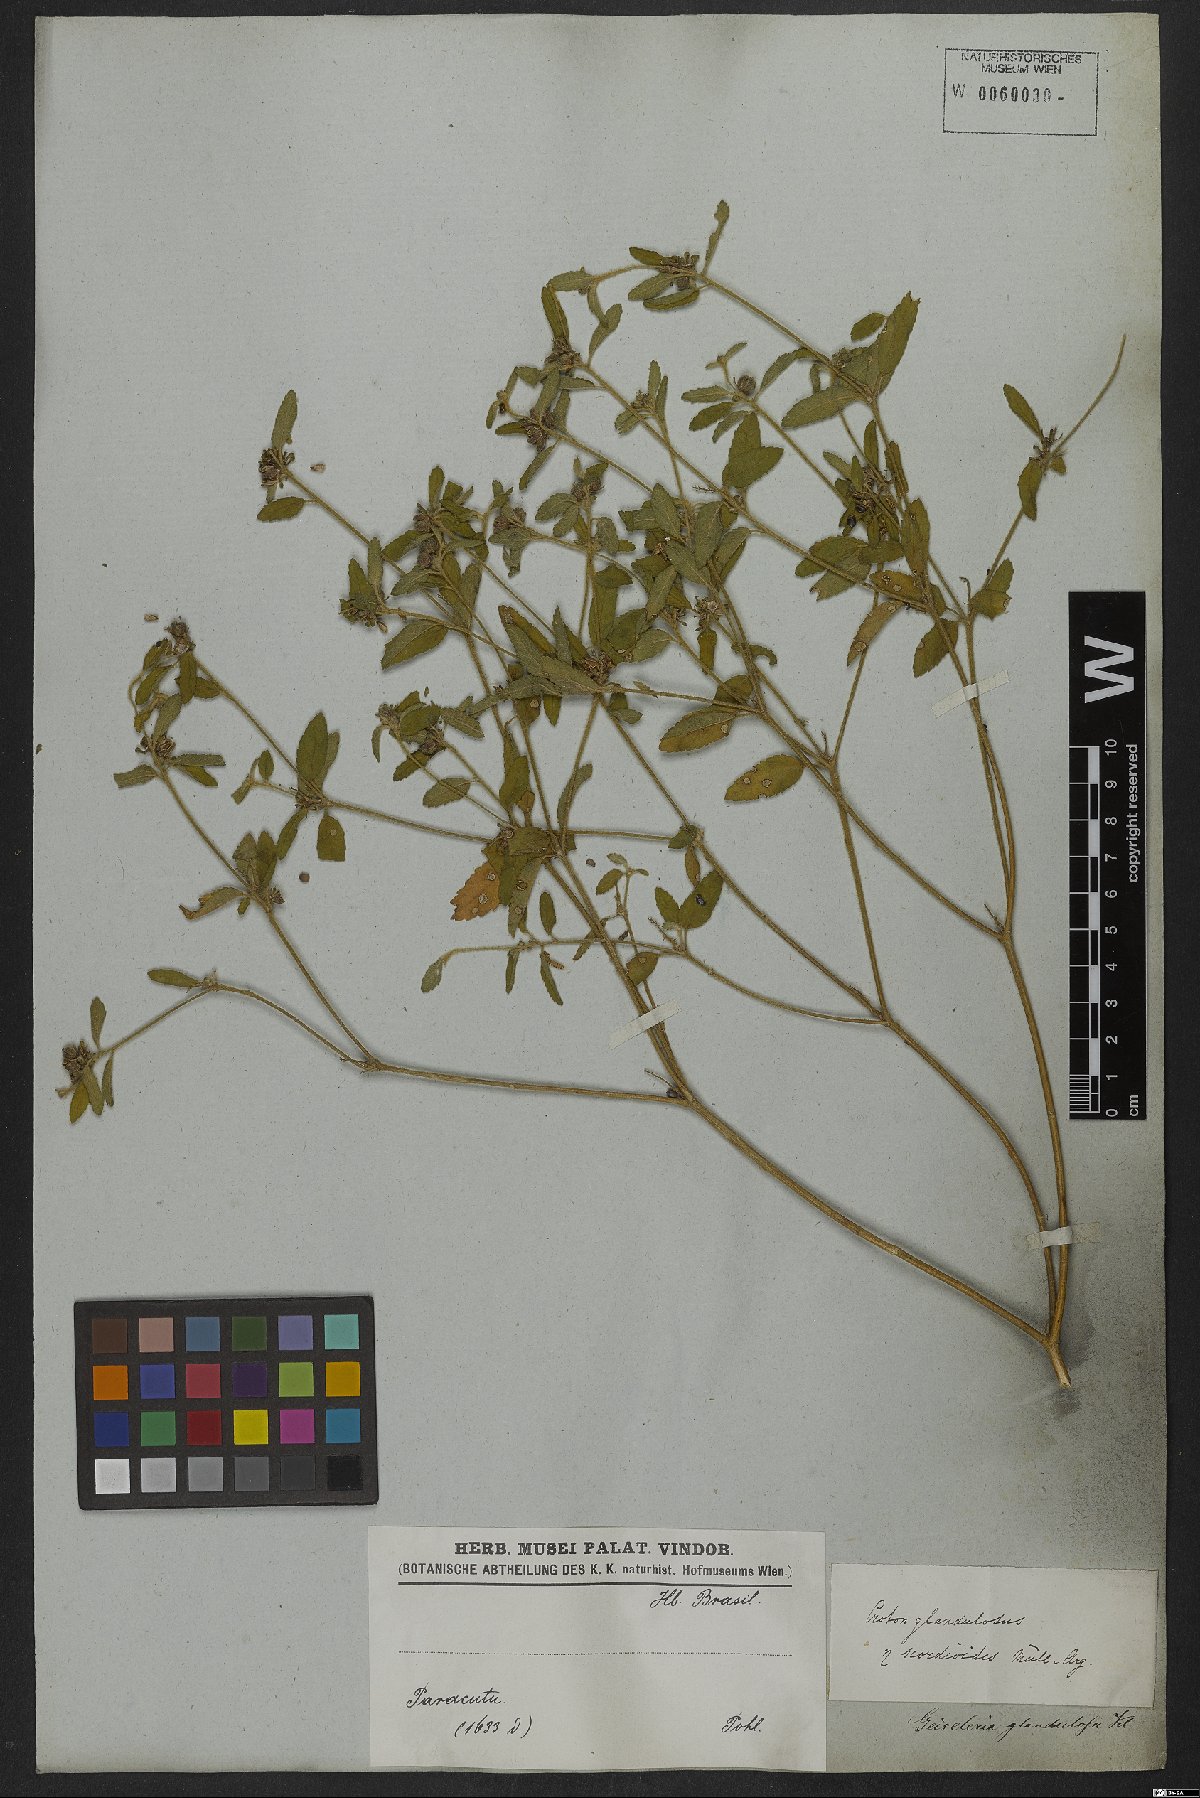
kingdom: Plantae
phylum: Tracheophyta
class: Magnoliopsida
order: Malpighiales
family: Euphorbiaceae
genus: Croton
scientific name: Croton glandulosus
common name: Tropic croton
